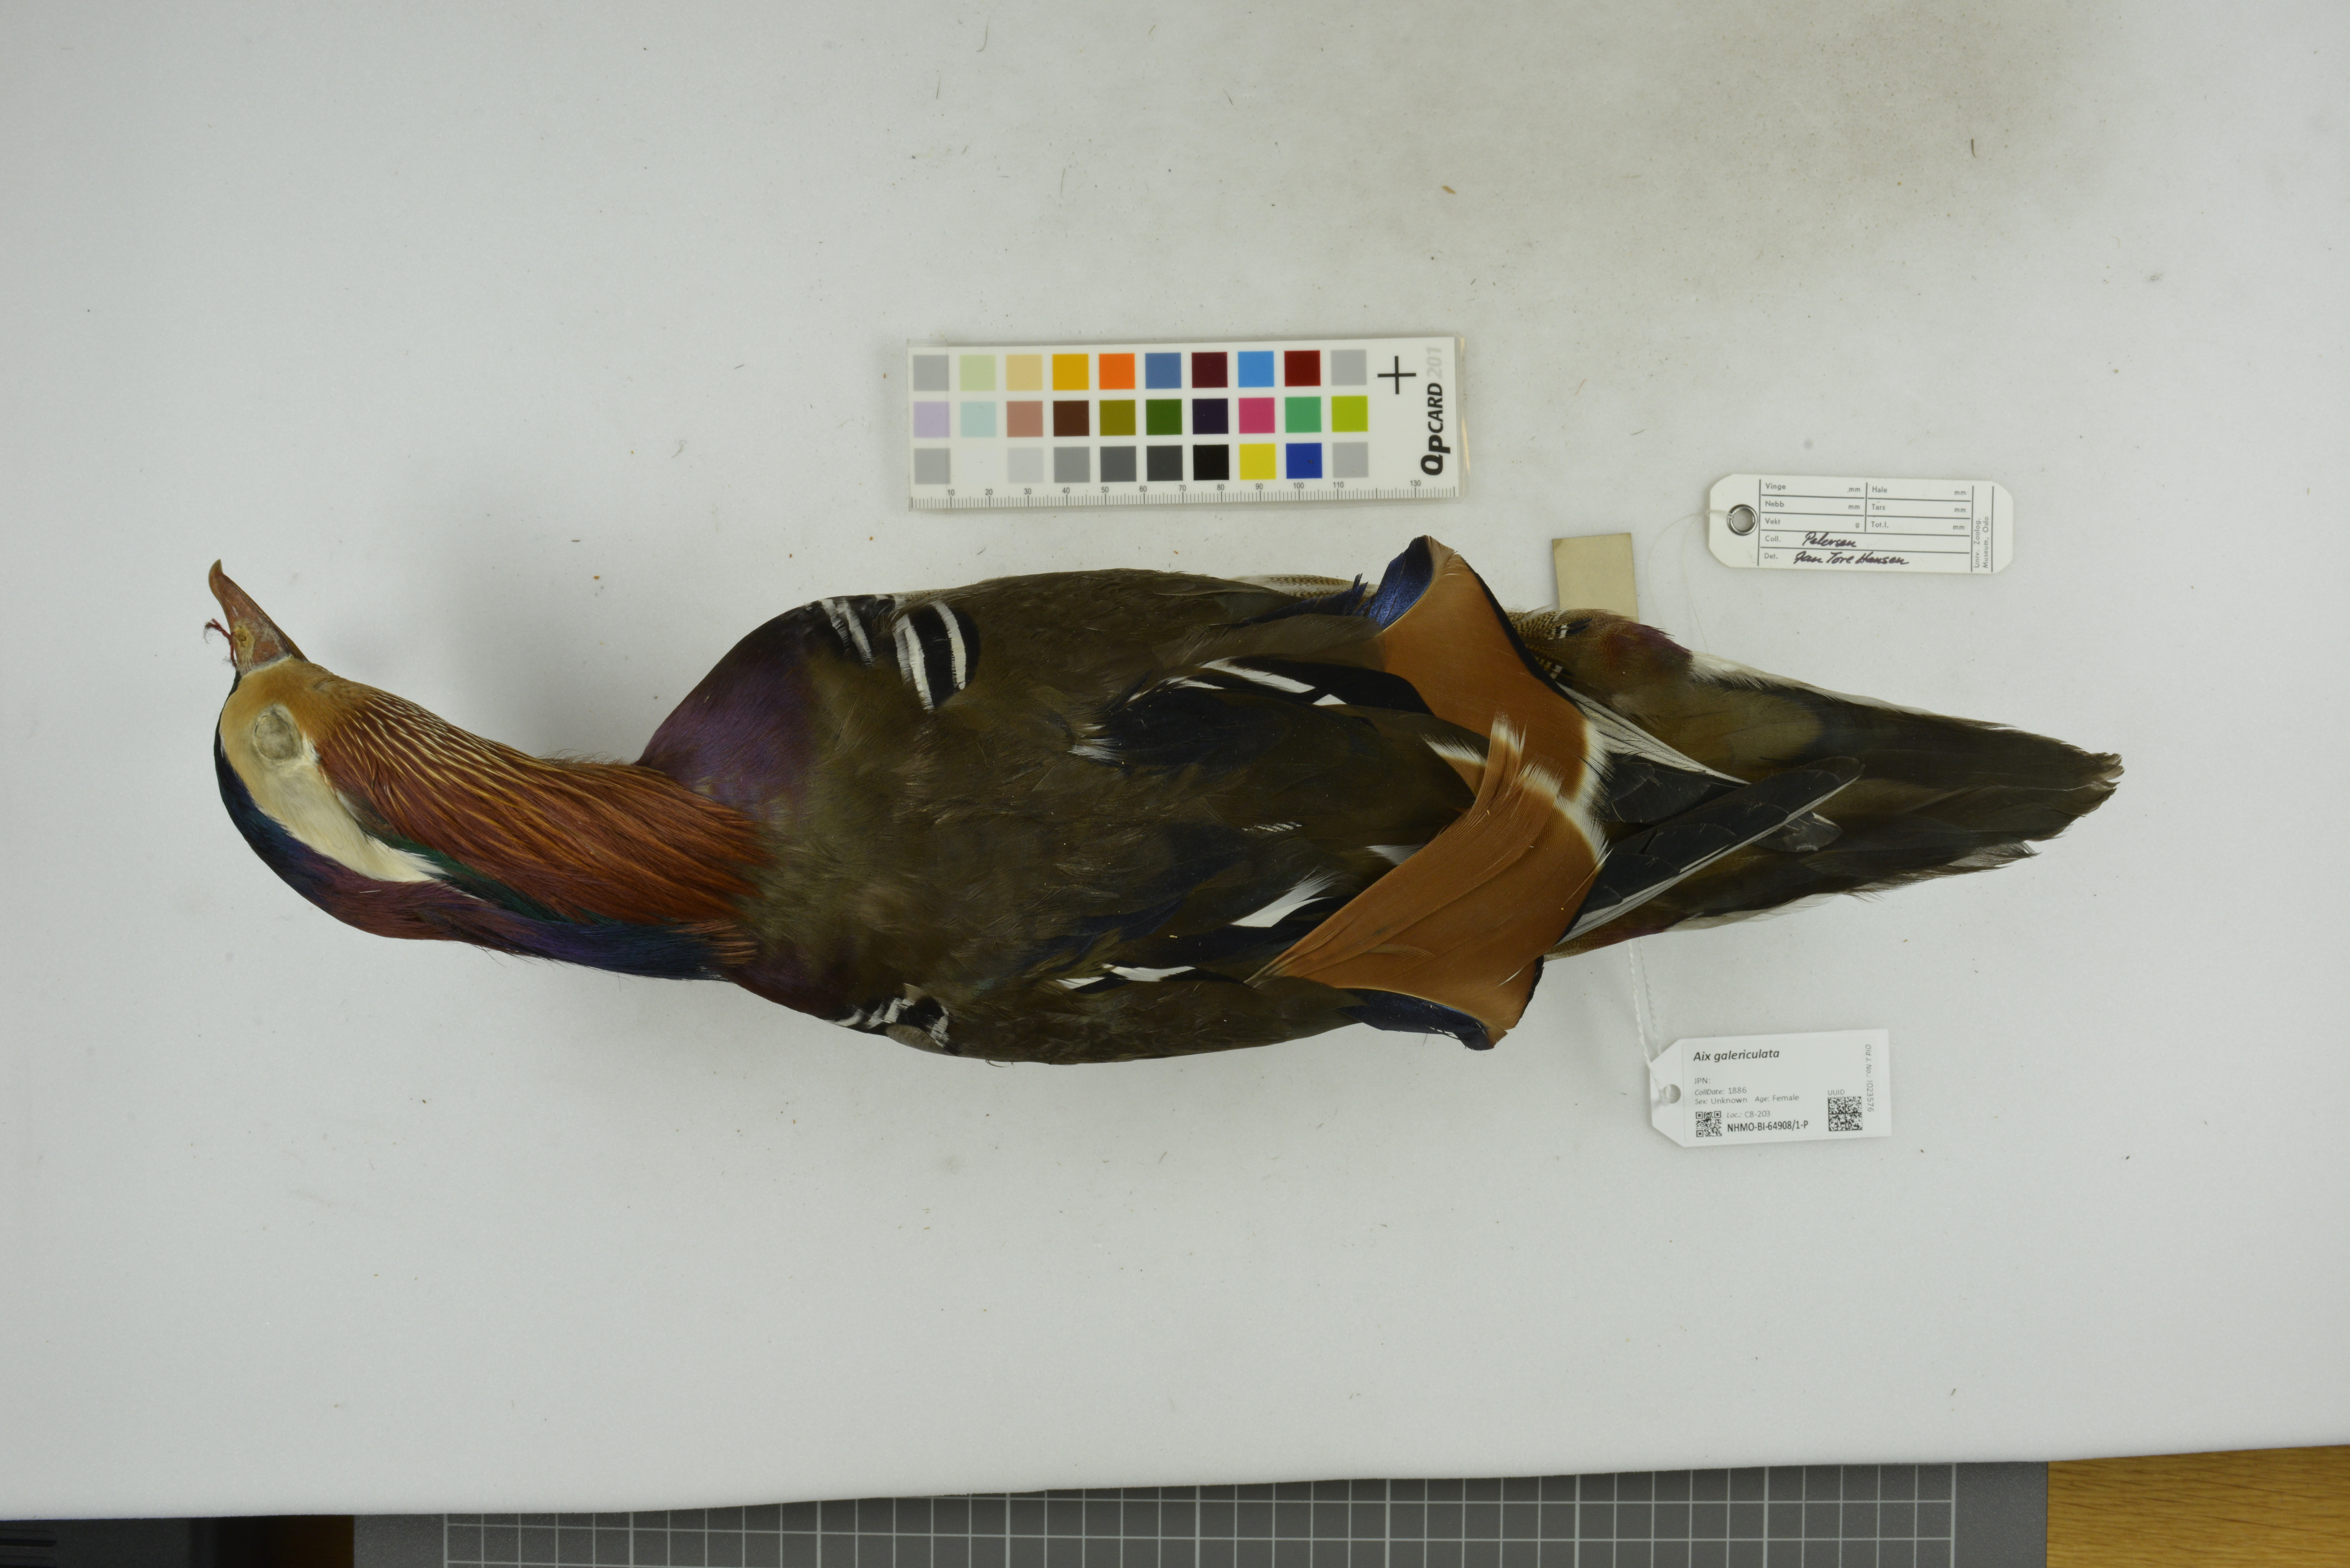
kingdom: Animalia
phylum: Chordata
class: Aves
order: Anseriformes
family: Anatidae
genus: Aix
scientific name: Aix galericulata
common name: Mandarin duck
